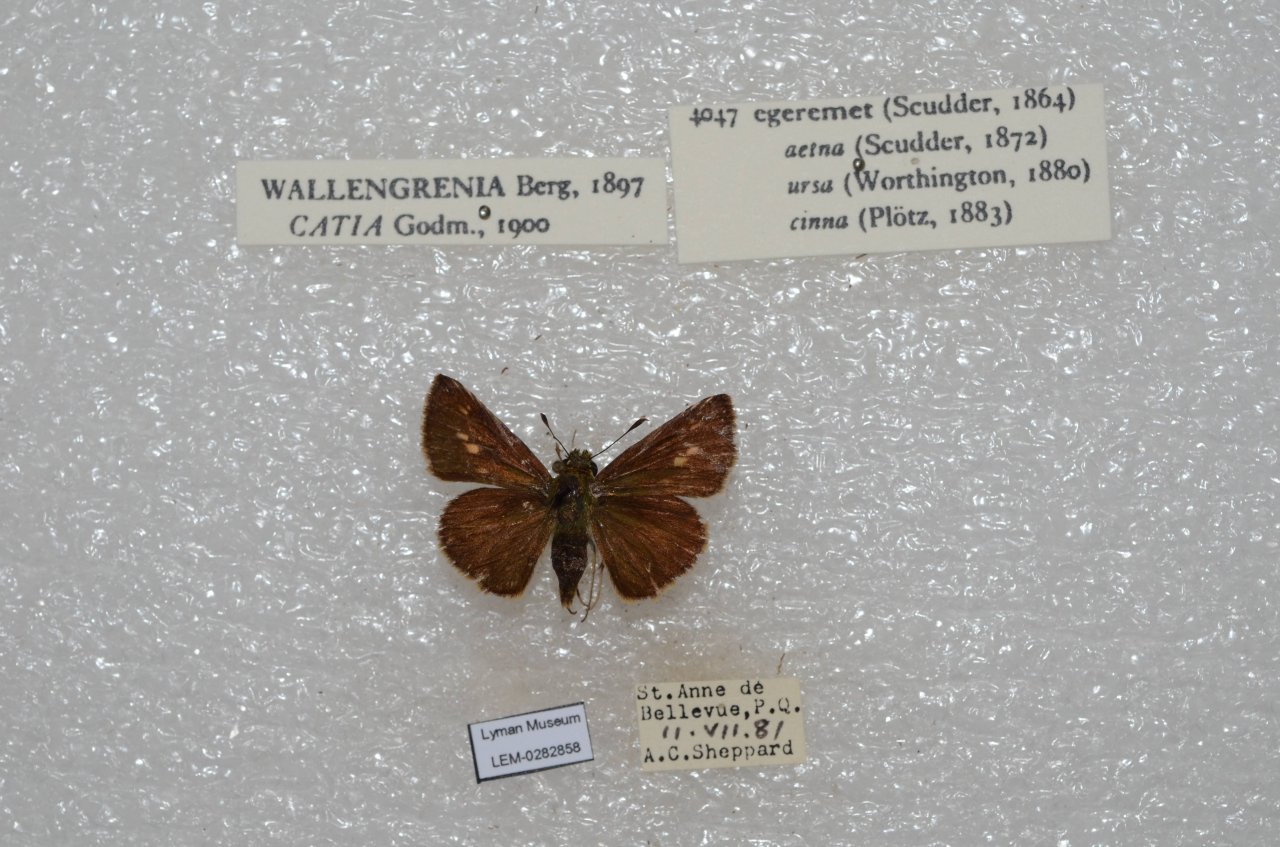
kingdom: Animalia
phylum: Arthropoda
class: Insecta
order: Lepidoptera
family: Hesperiidae
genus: Polites
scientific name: Polites egeremet
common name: Northern Broken-Dash
